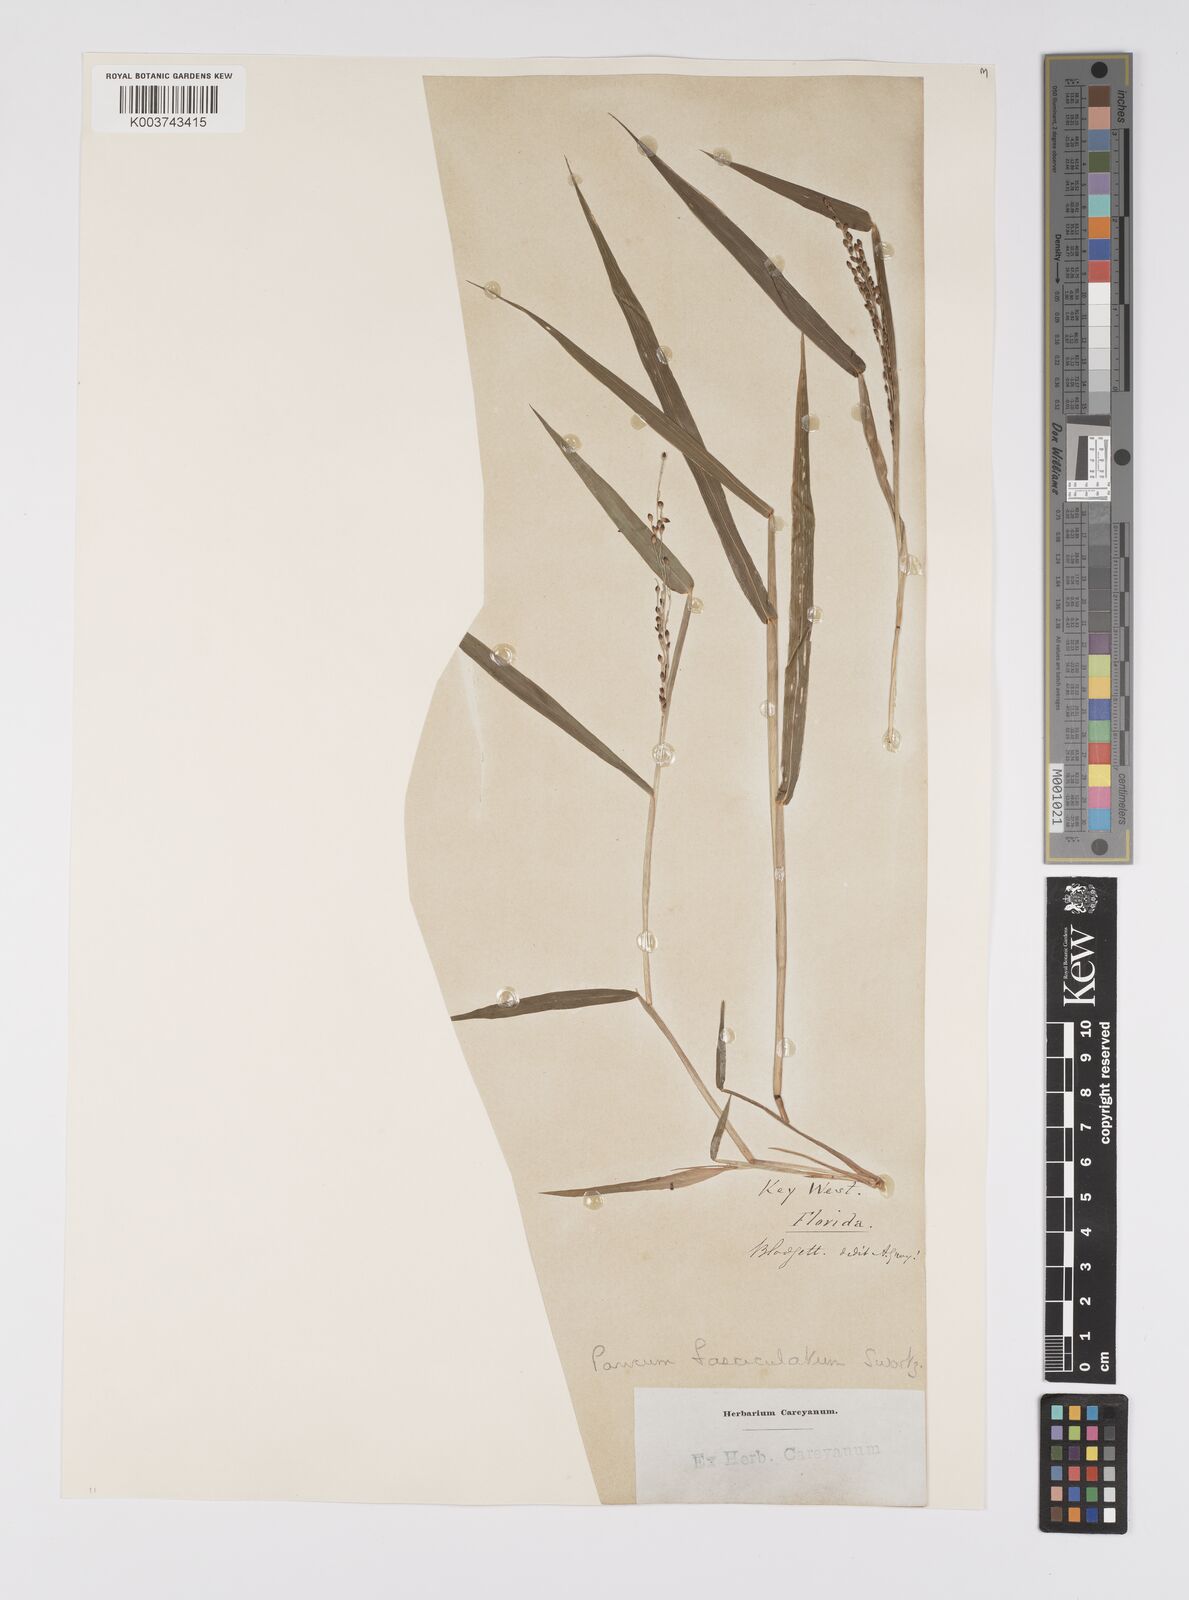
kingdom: Plantae
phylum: Tracheophyta
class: Liliopsida
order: Poales
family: Poaceae
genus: Urochloa
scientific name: Urochloa fusca
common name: Browntop signal grass
